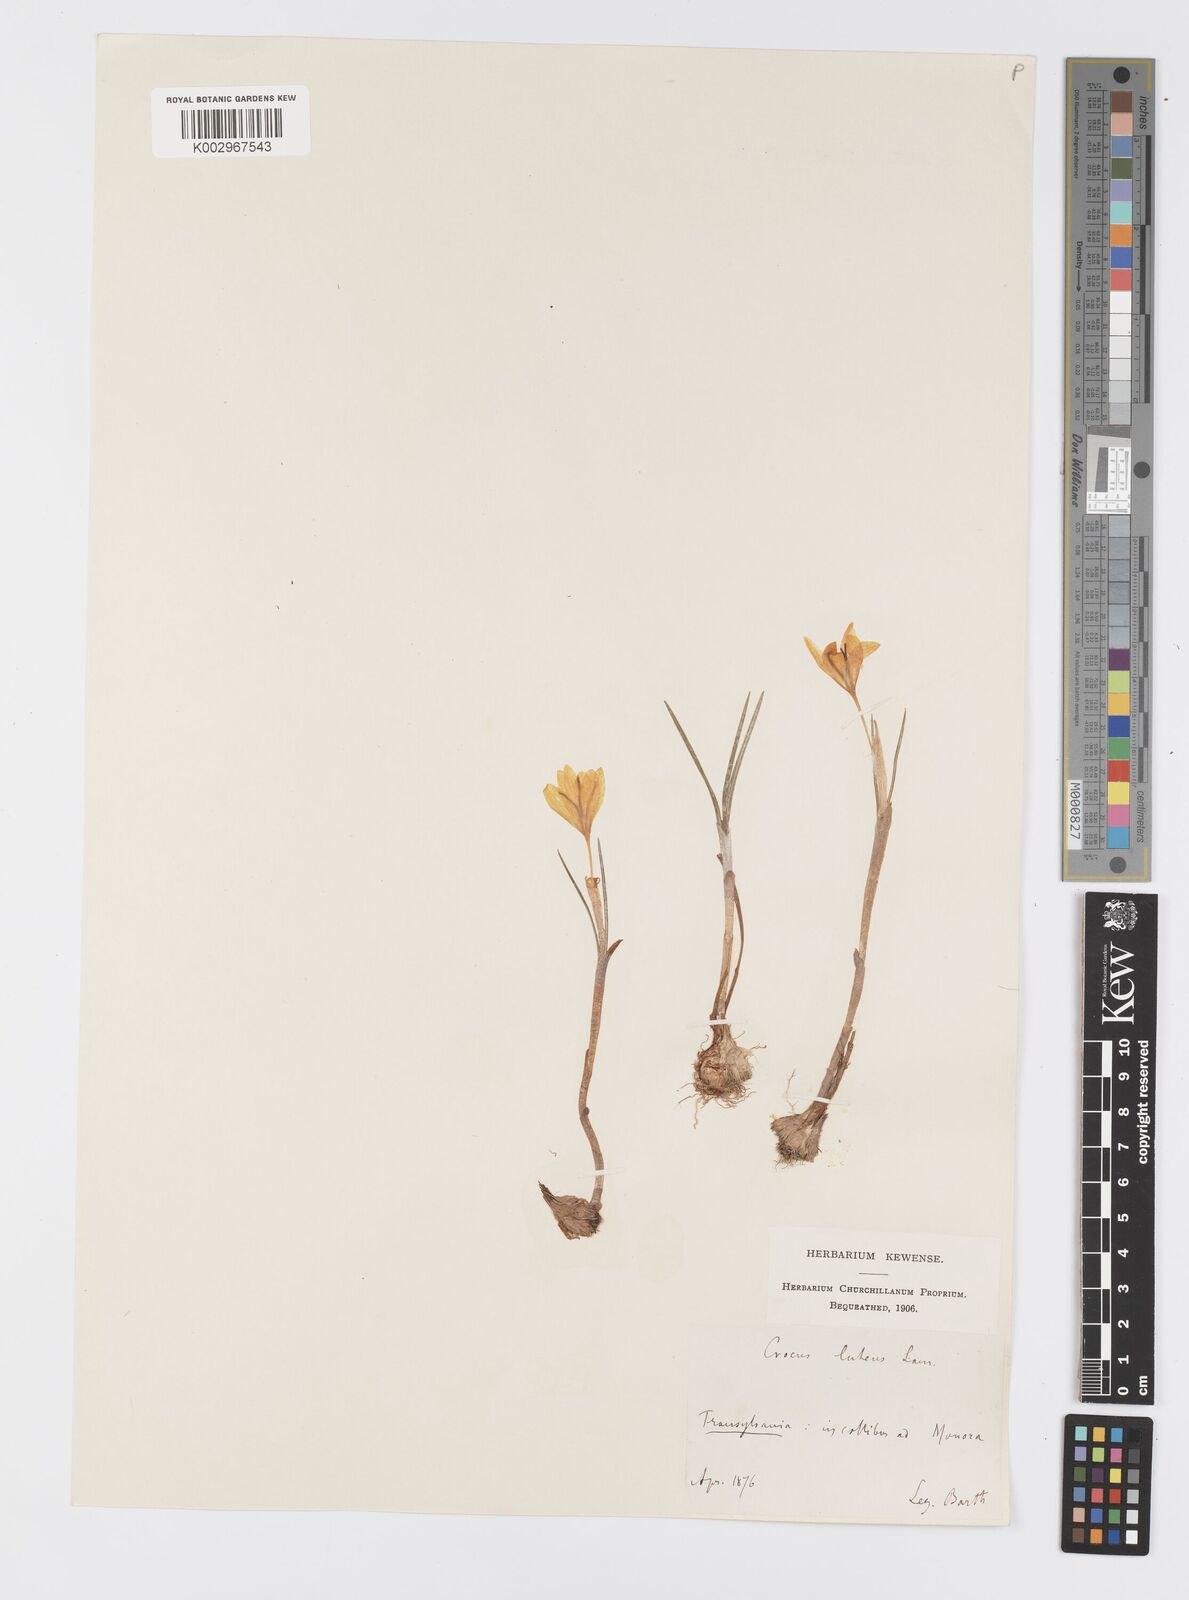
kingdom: Plantae
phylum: Tracheophyta
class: Liliopsida
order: Asparagales
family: Iridaceae
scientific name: Iridaceae
